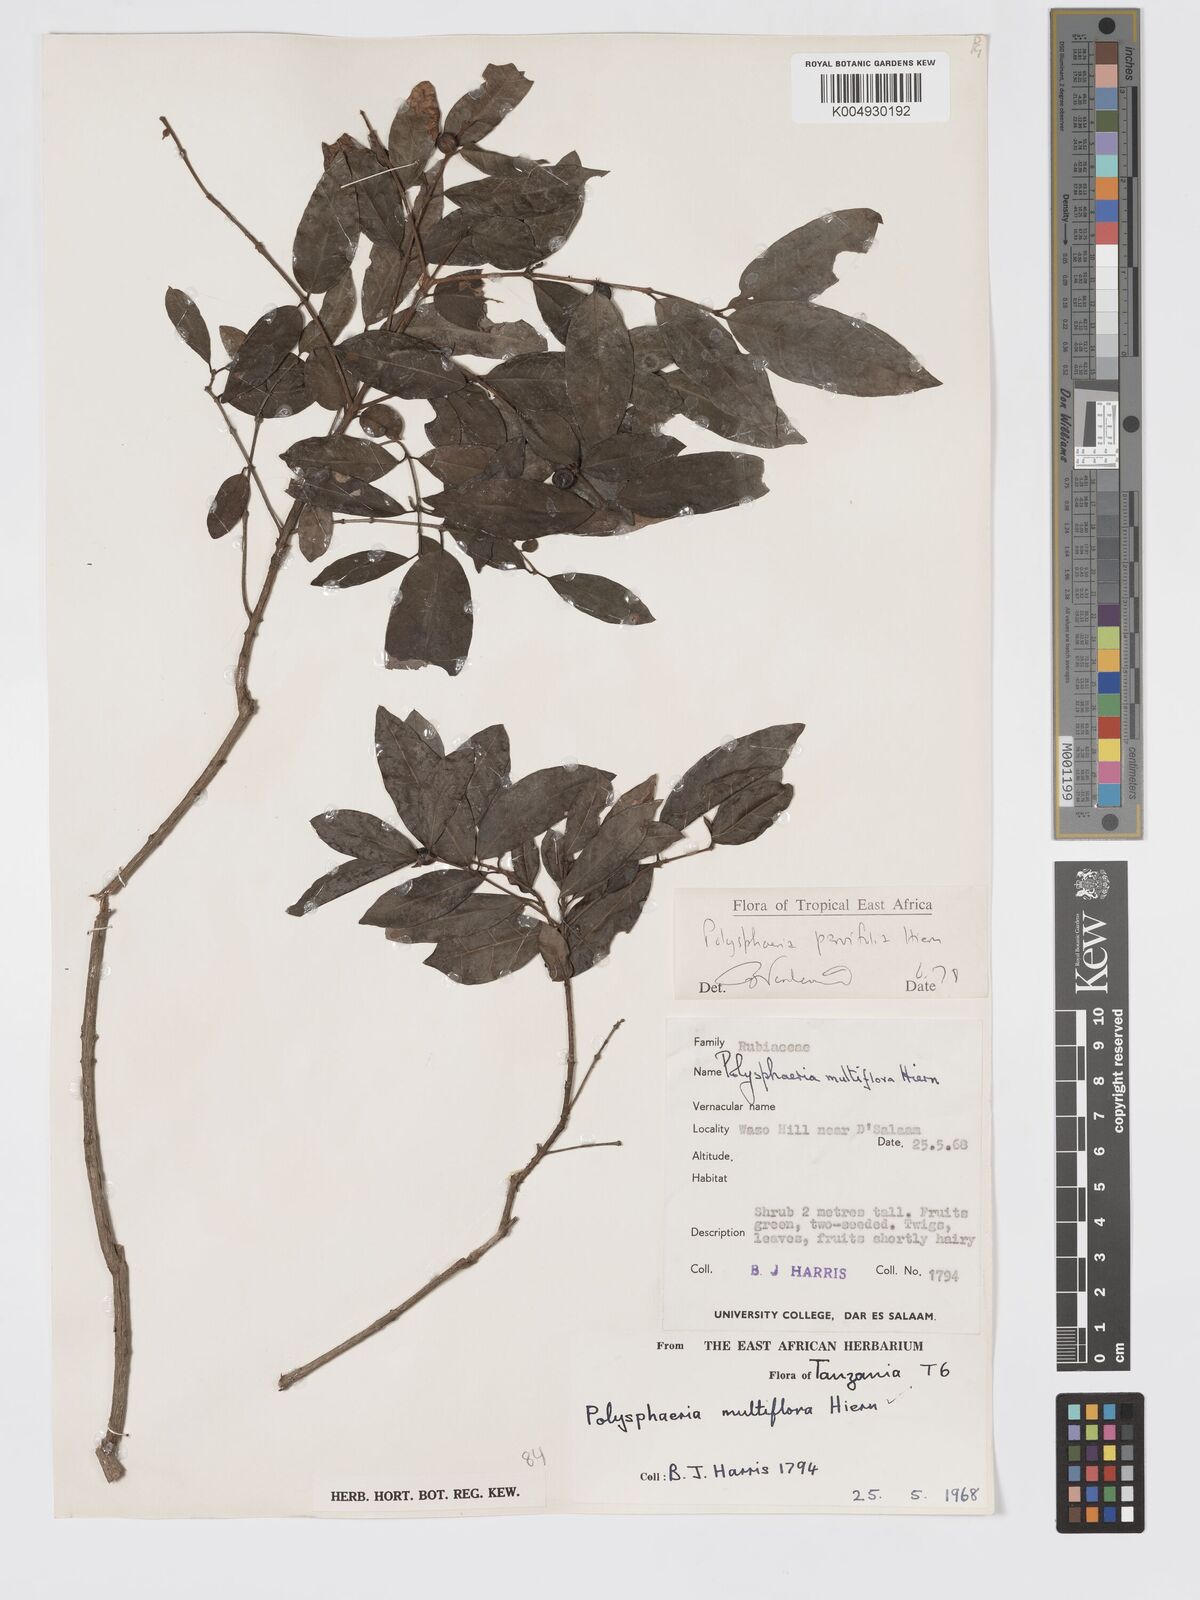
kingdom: Plantae
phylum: Tracheophyta
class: Magnoliopsida
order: Gentianales
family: Rubiaceae
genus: Polysphaeria
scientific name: Polysphaeria parvifolia
